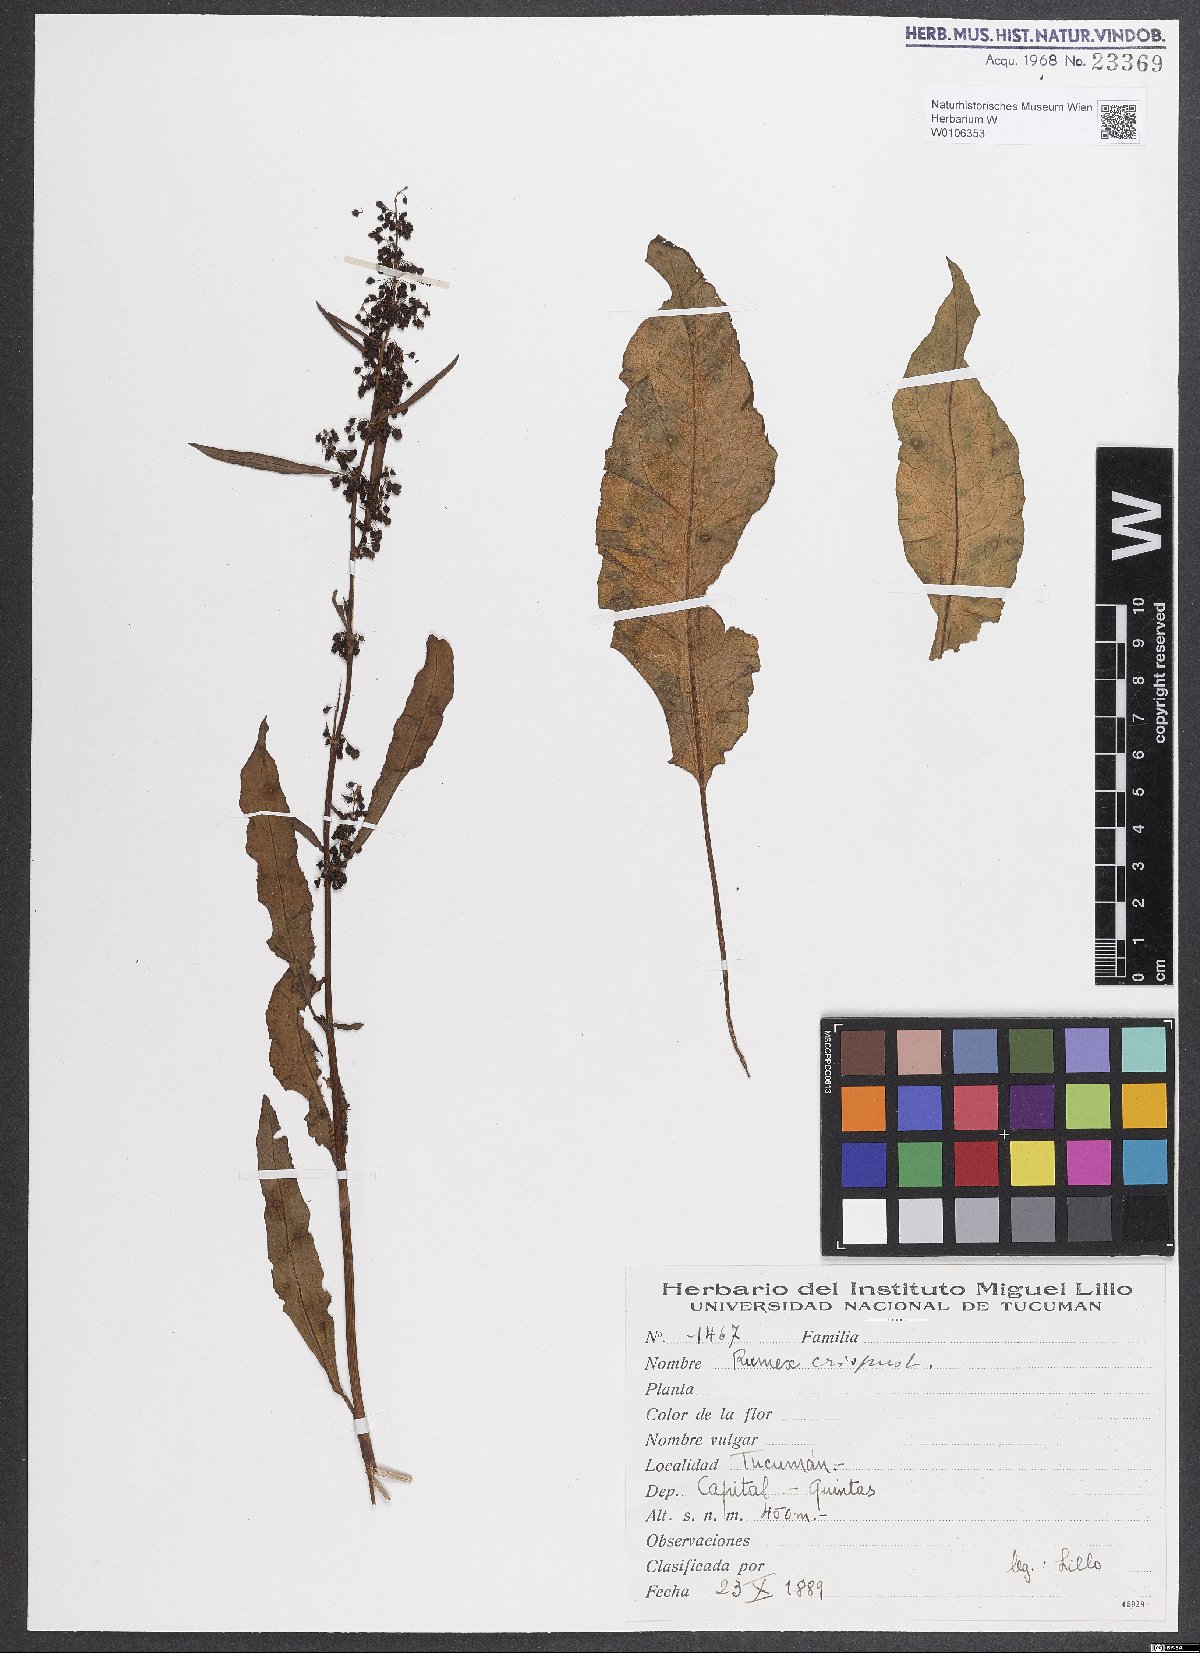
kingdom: Plantae
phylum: Tracheophyta
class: Magnoliopsida
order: Caryophyllales
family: Polygonaceae
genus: Rumex
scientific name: Rumex crispus
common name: Curled dock
